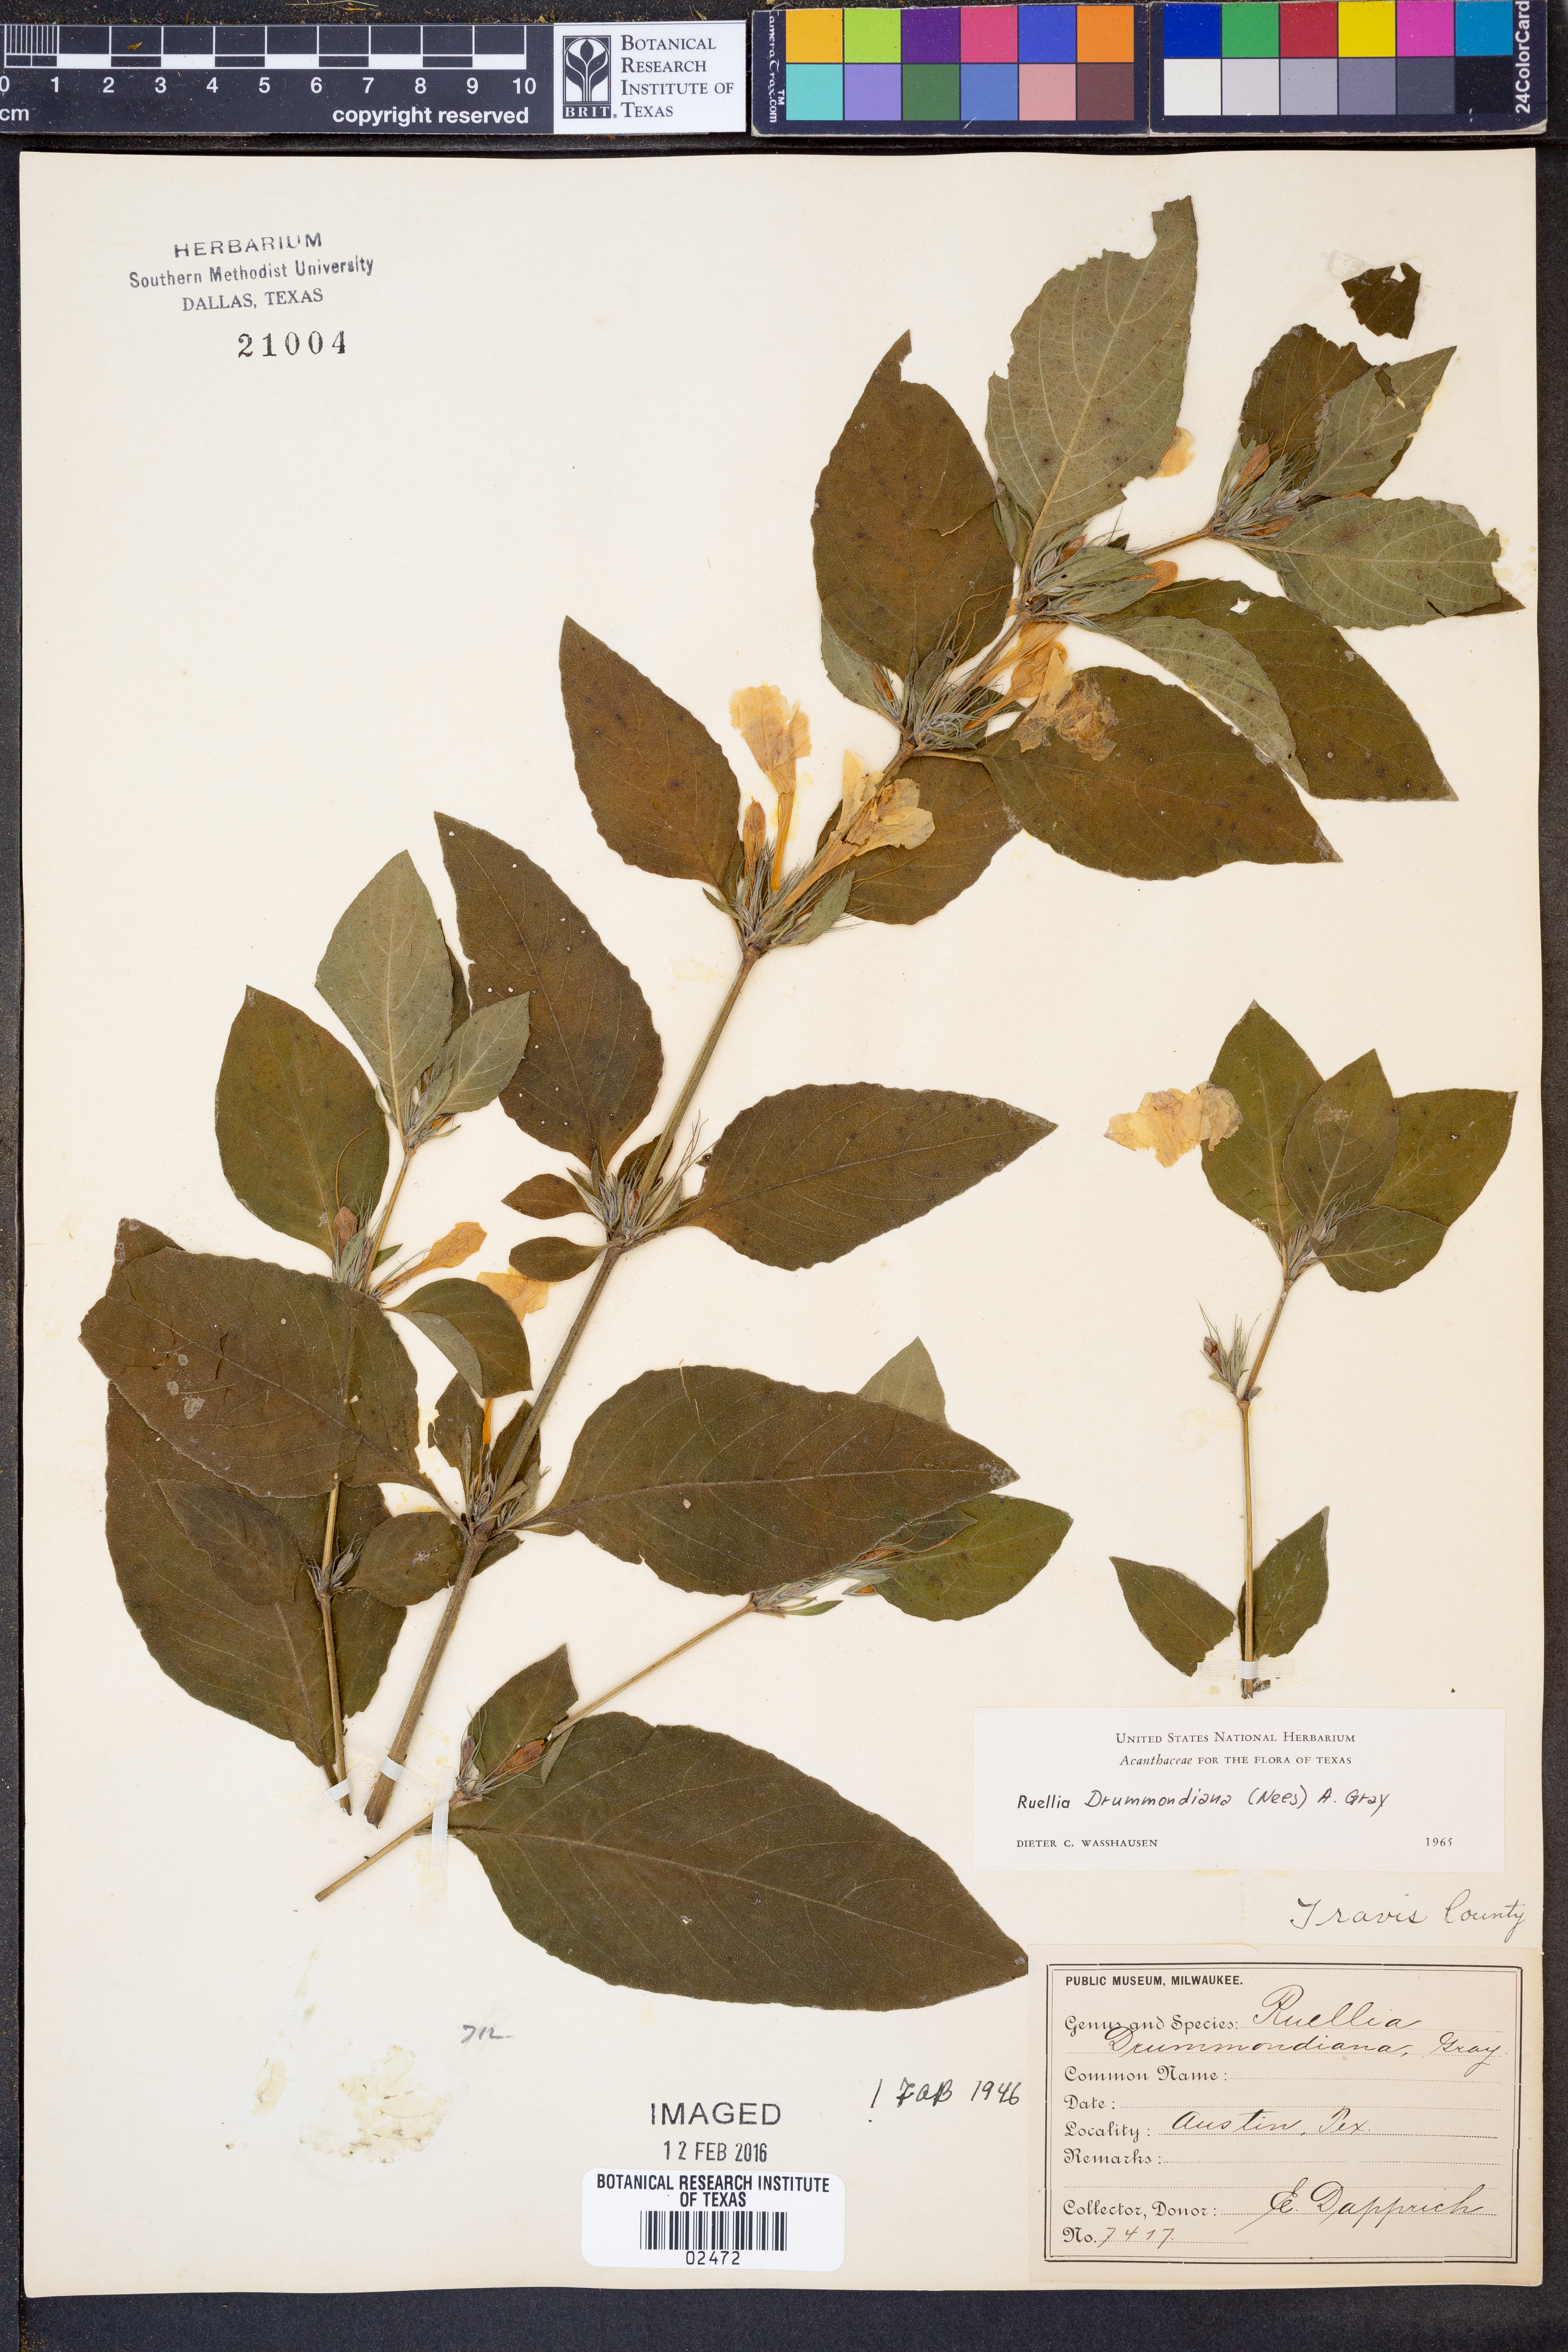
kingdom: Plantae
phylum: Tracheophyta
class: Magnoliopsida
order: Lamiales
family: Acanthaceae
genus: Ruellia
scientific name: Ruellia drummondiana
